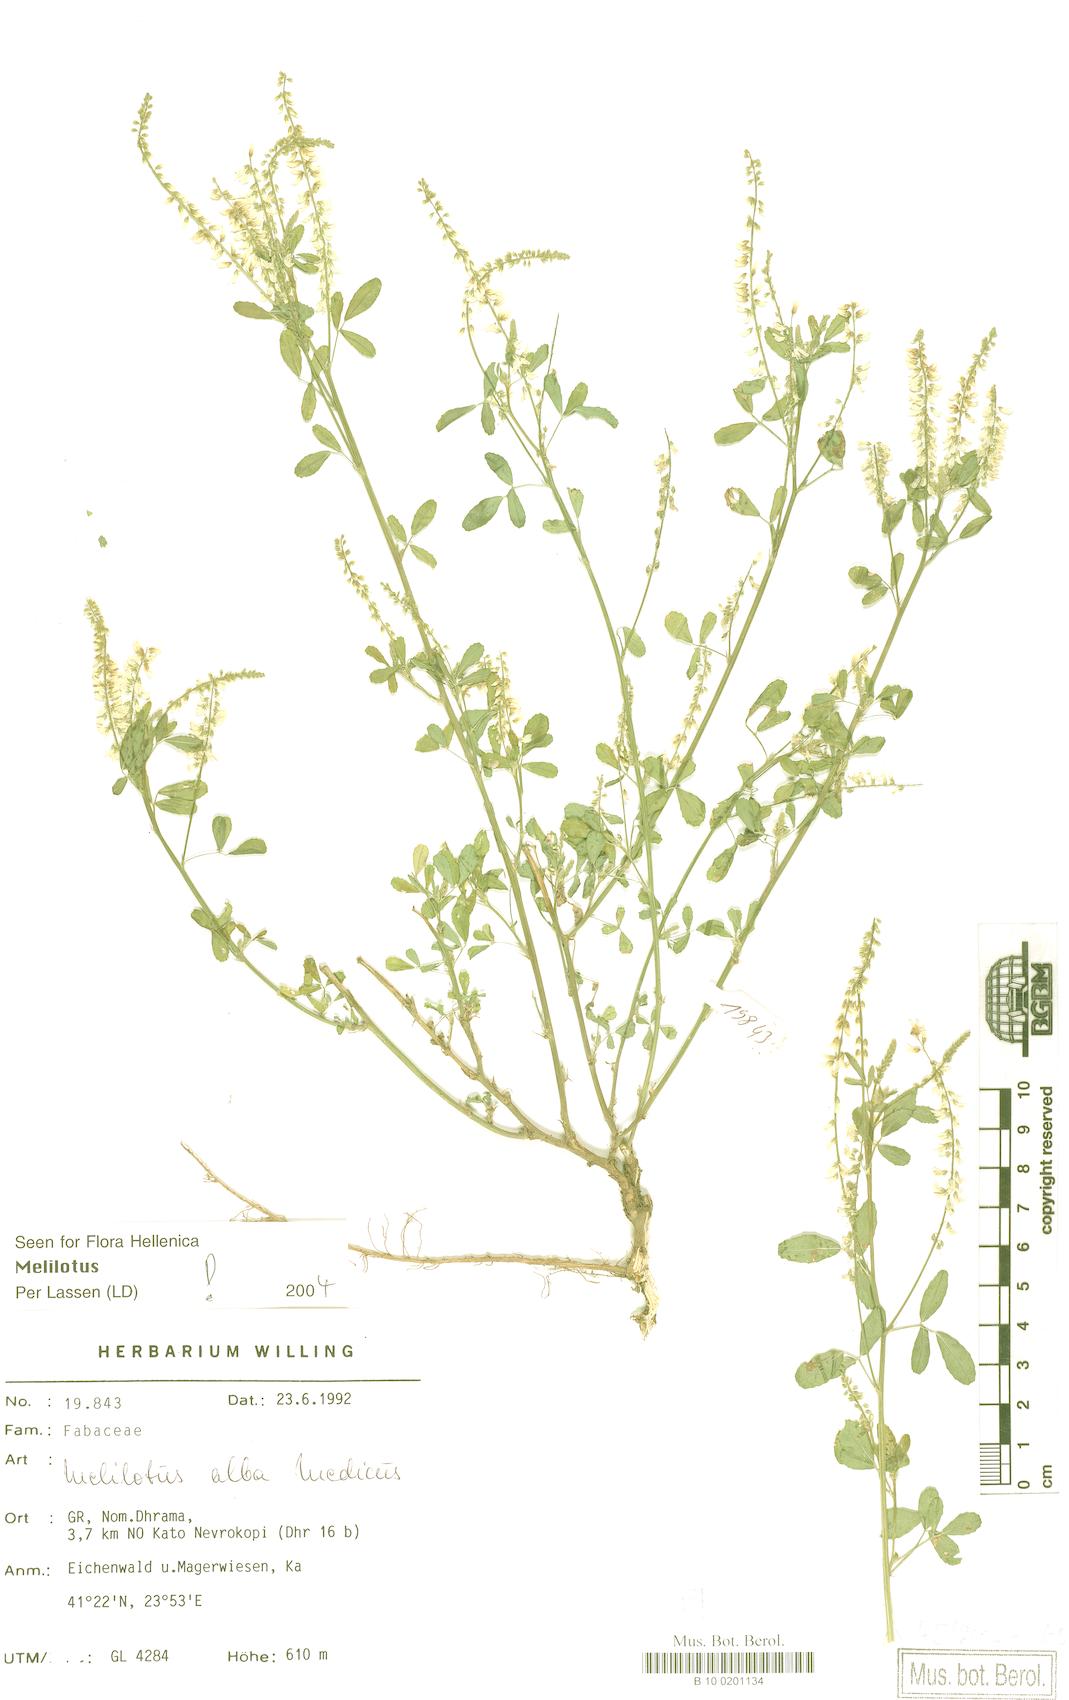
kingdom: Plantae
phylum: Tracheophyta
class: Magnoliopsida
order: Fabales
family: Fabaceae
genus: Melilotus
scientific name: Melilotus albus
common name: White melilot
